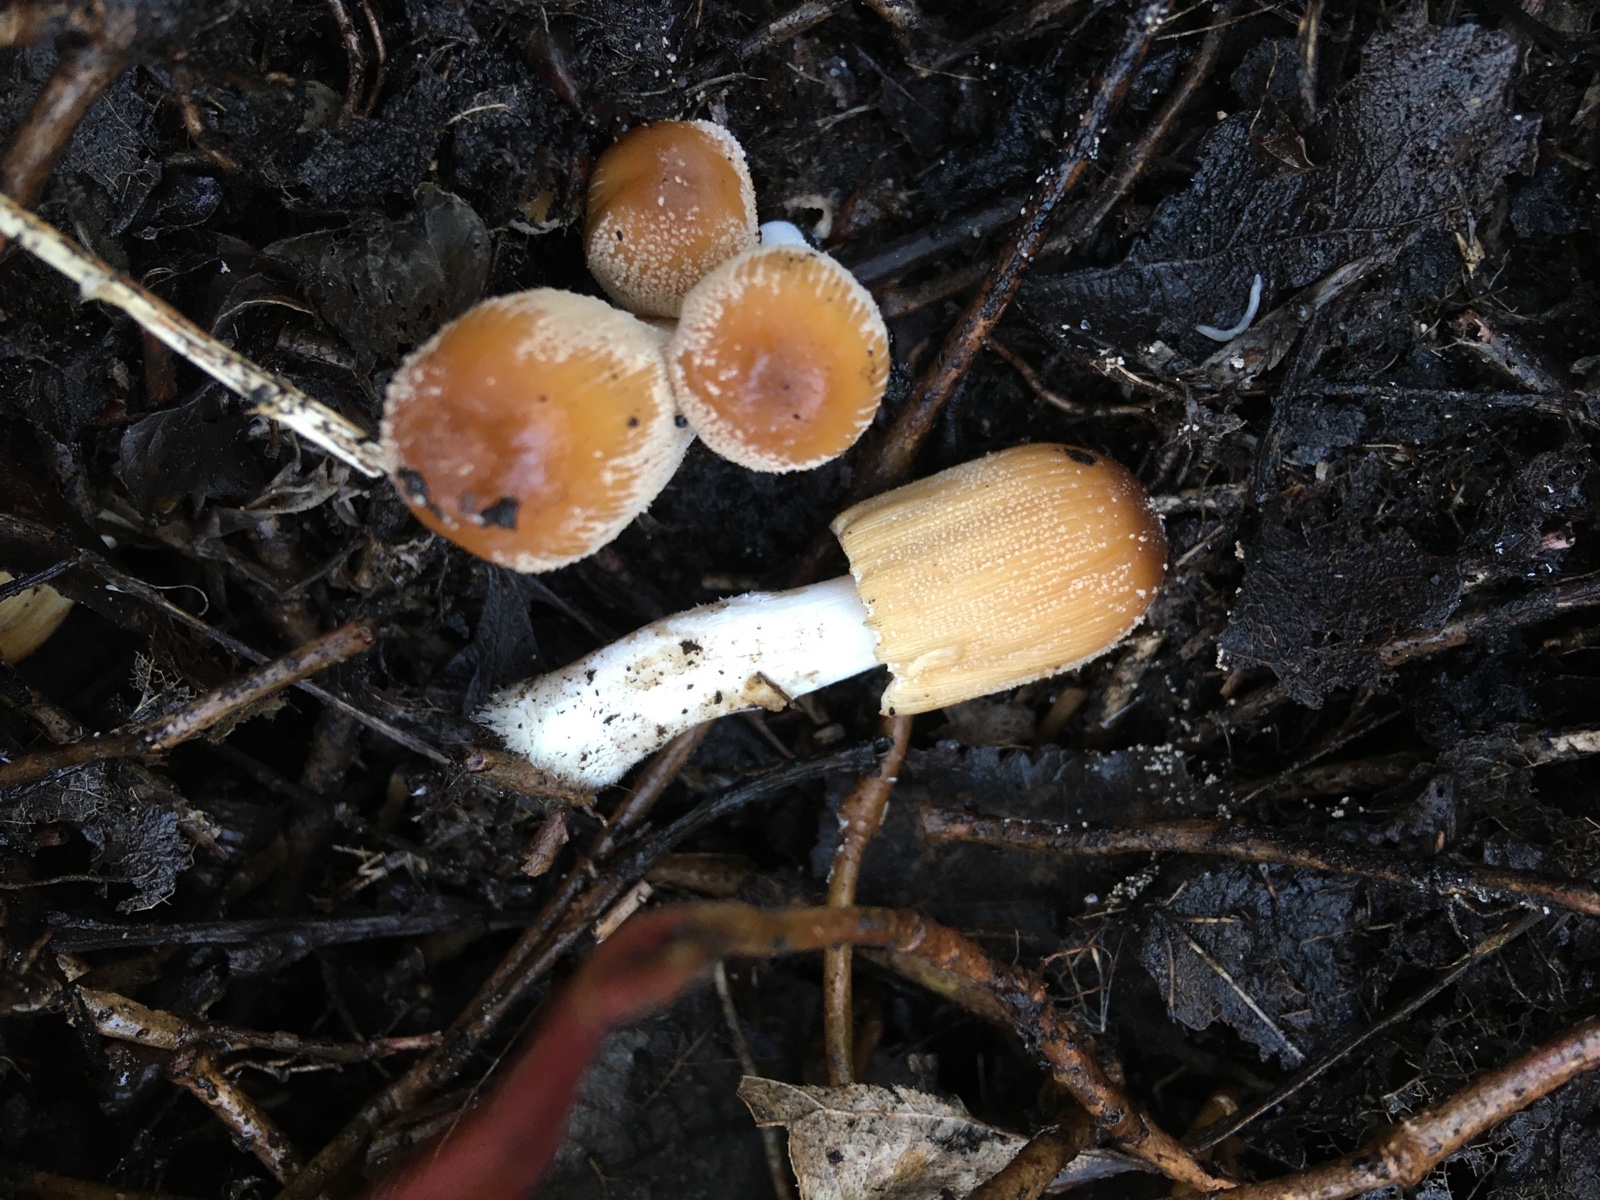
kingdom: Fungi
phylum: Basidiomycota
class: Agaricomycetes
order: Agaricales
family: Psathyrellaceae
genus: Coprinellus
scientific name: Coprinellus micaceus
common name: glimmer-blækhat
